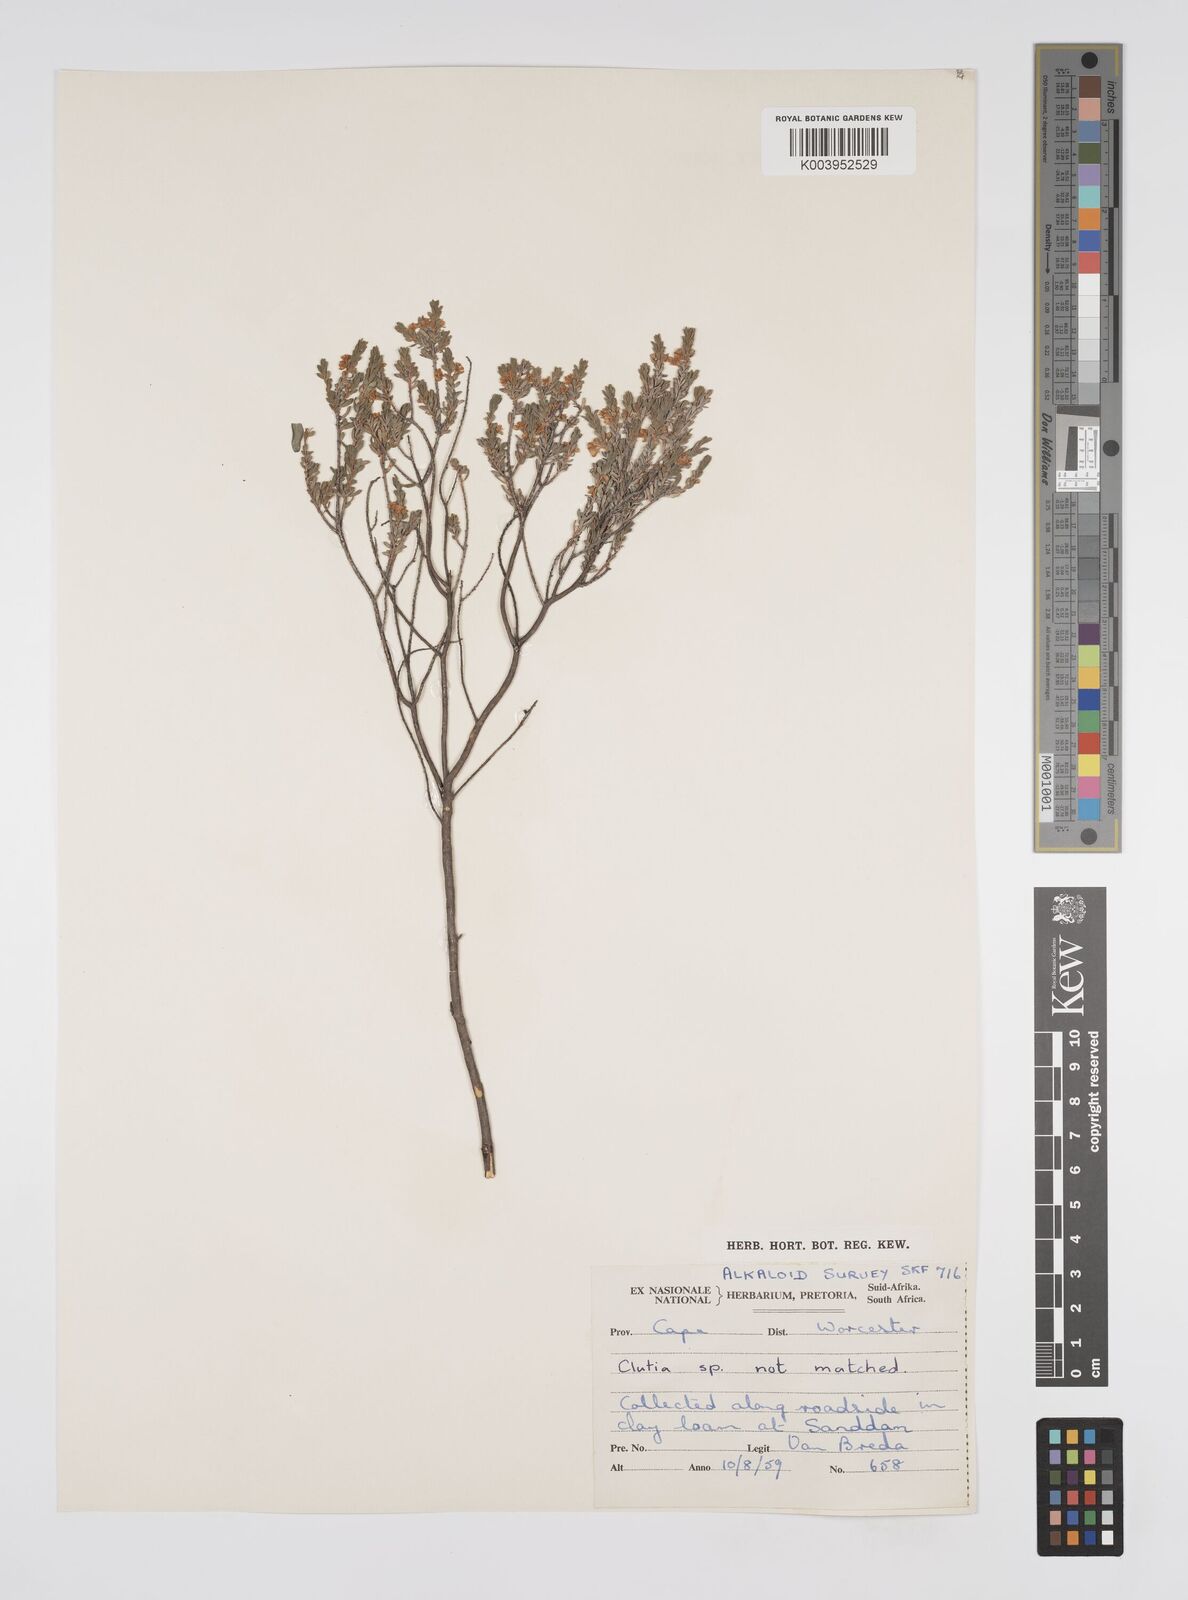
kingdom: Plantae
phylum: Tracheophyta
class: Magnoliopsida
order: Malpighiales
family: Peraceae
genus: Clutia
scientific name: Clutia
